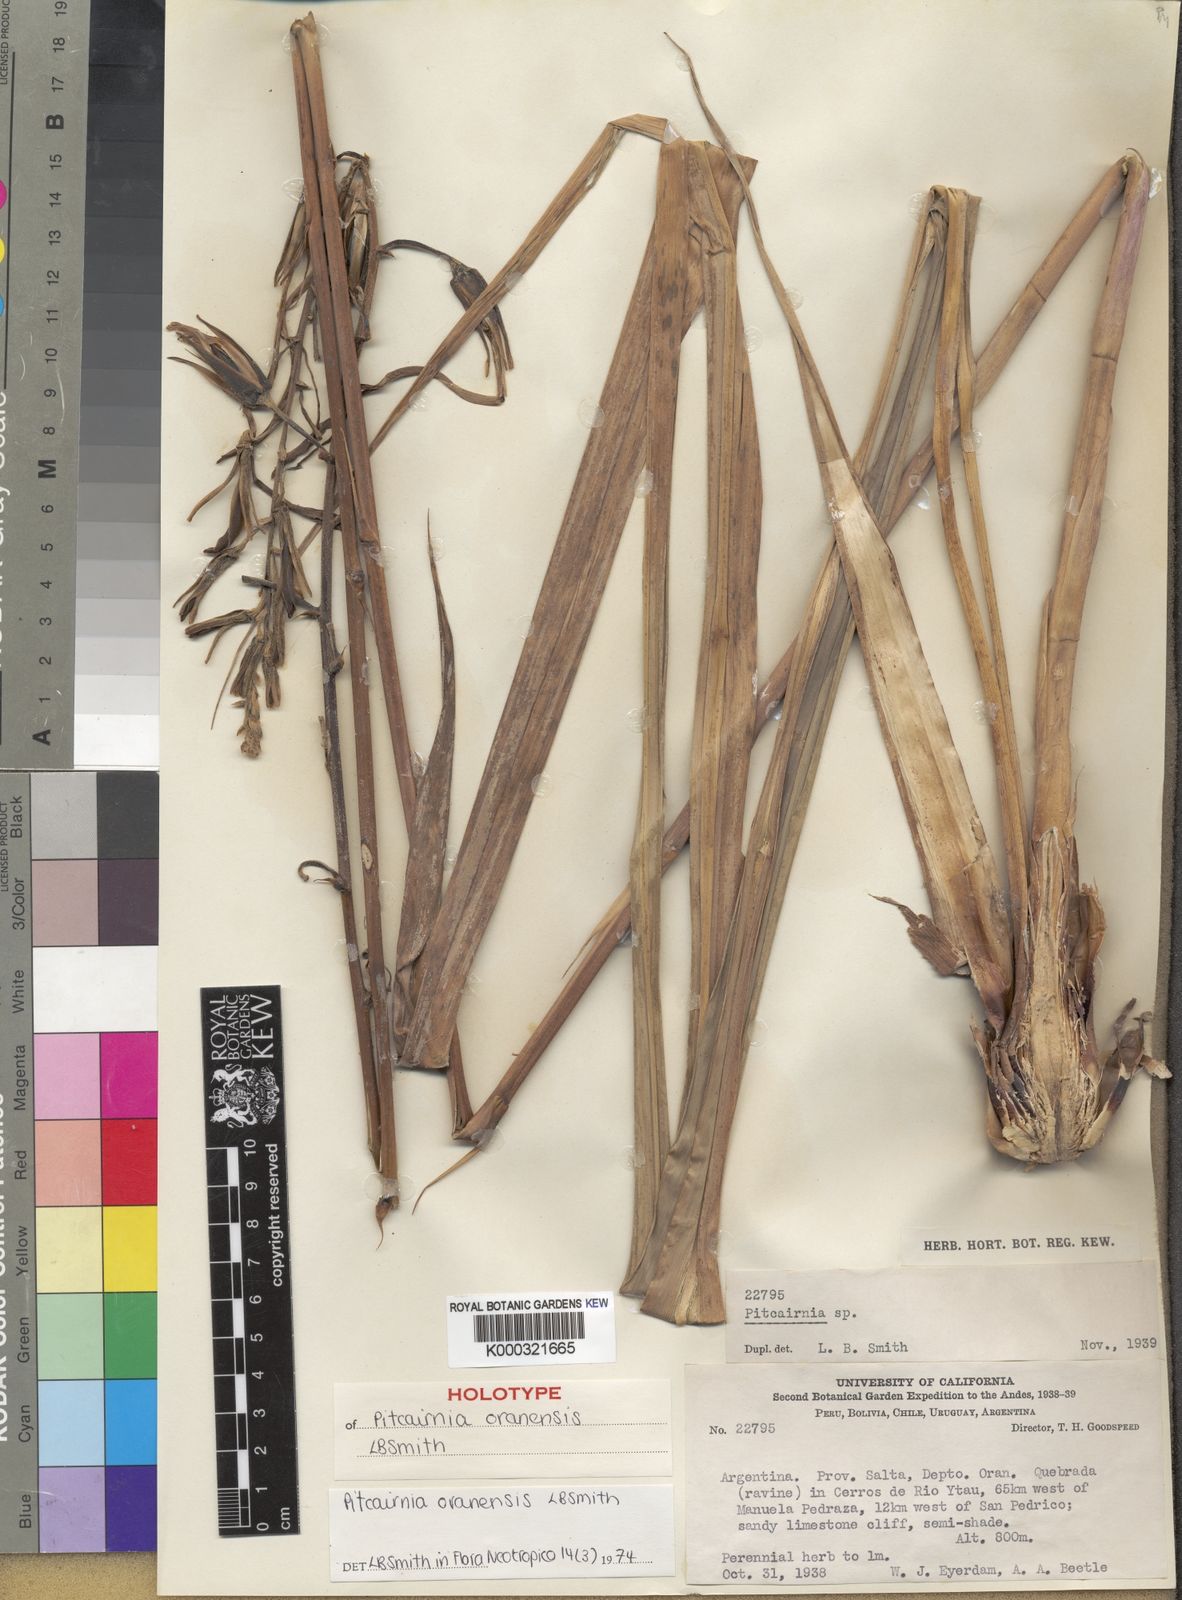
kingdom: Plantae
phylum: Tracheophyta
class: Liliopsida
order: Poales
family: Bromeliaceae
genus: Pitcairnia
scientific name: Pitcairnia oranensis
